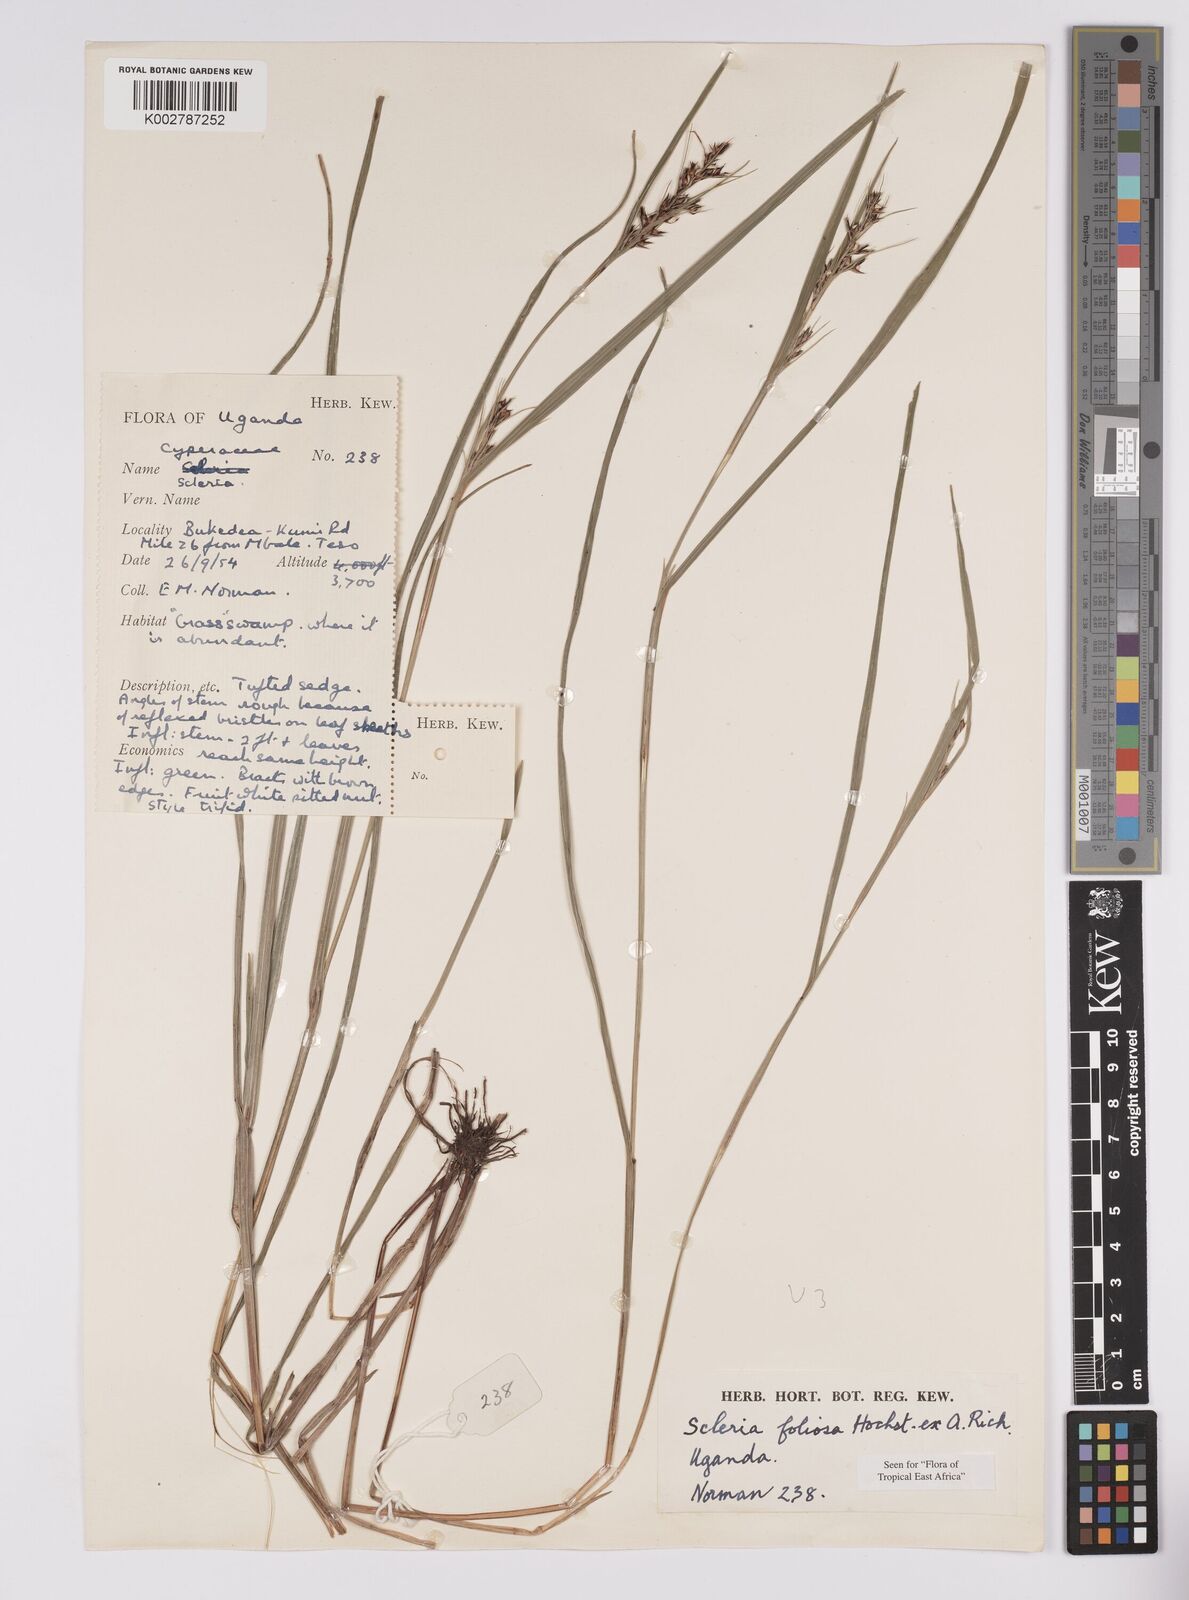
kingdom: Plantae
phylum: Tracheophyta
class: Liliopsida
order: Poales
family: Cyperaceae
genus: Scleria
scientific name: Scleria foliosa
